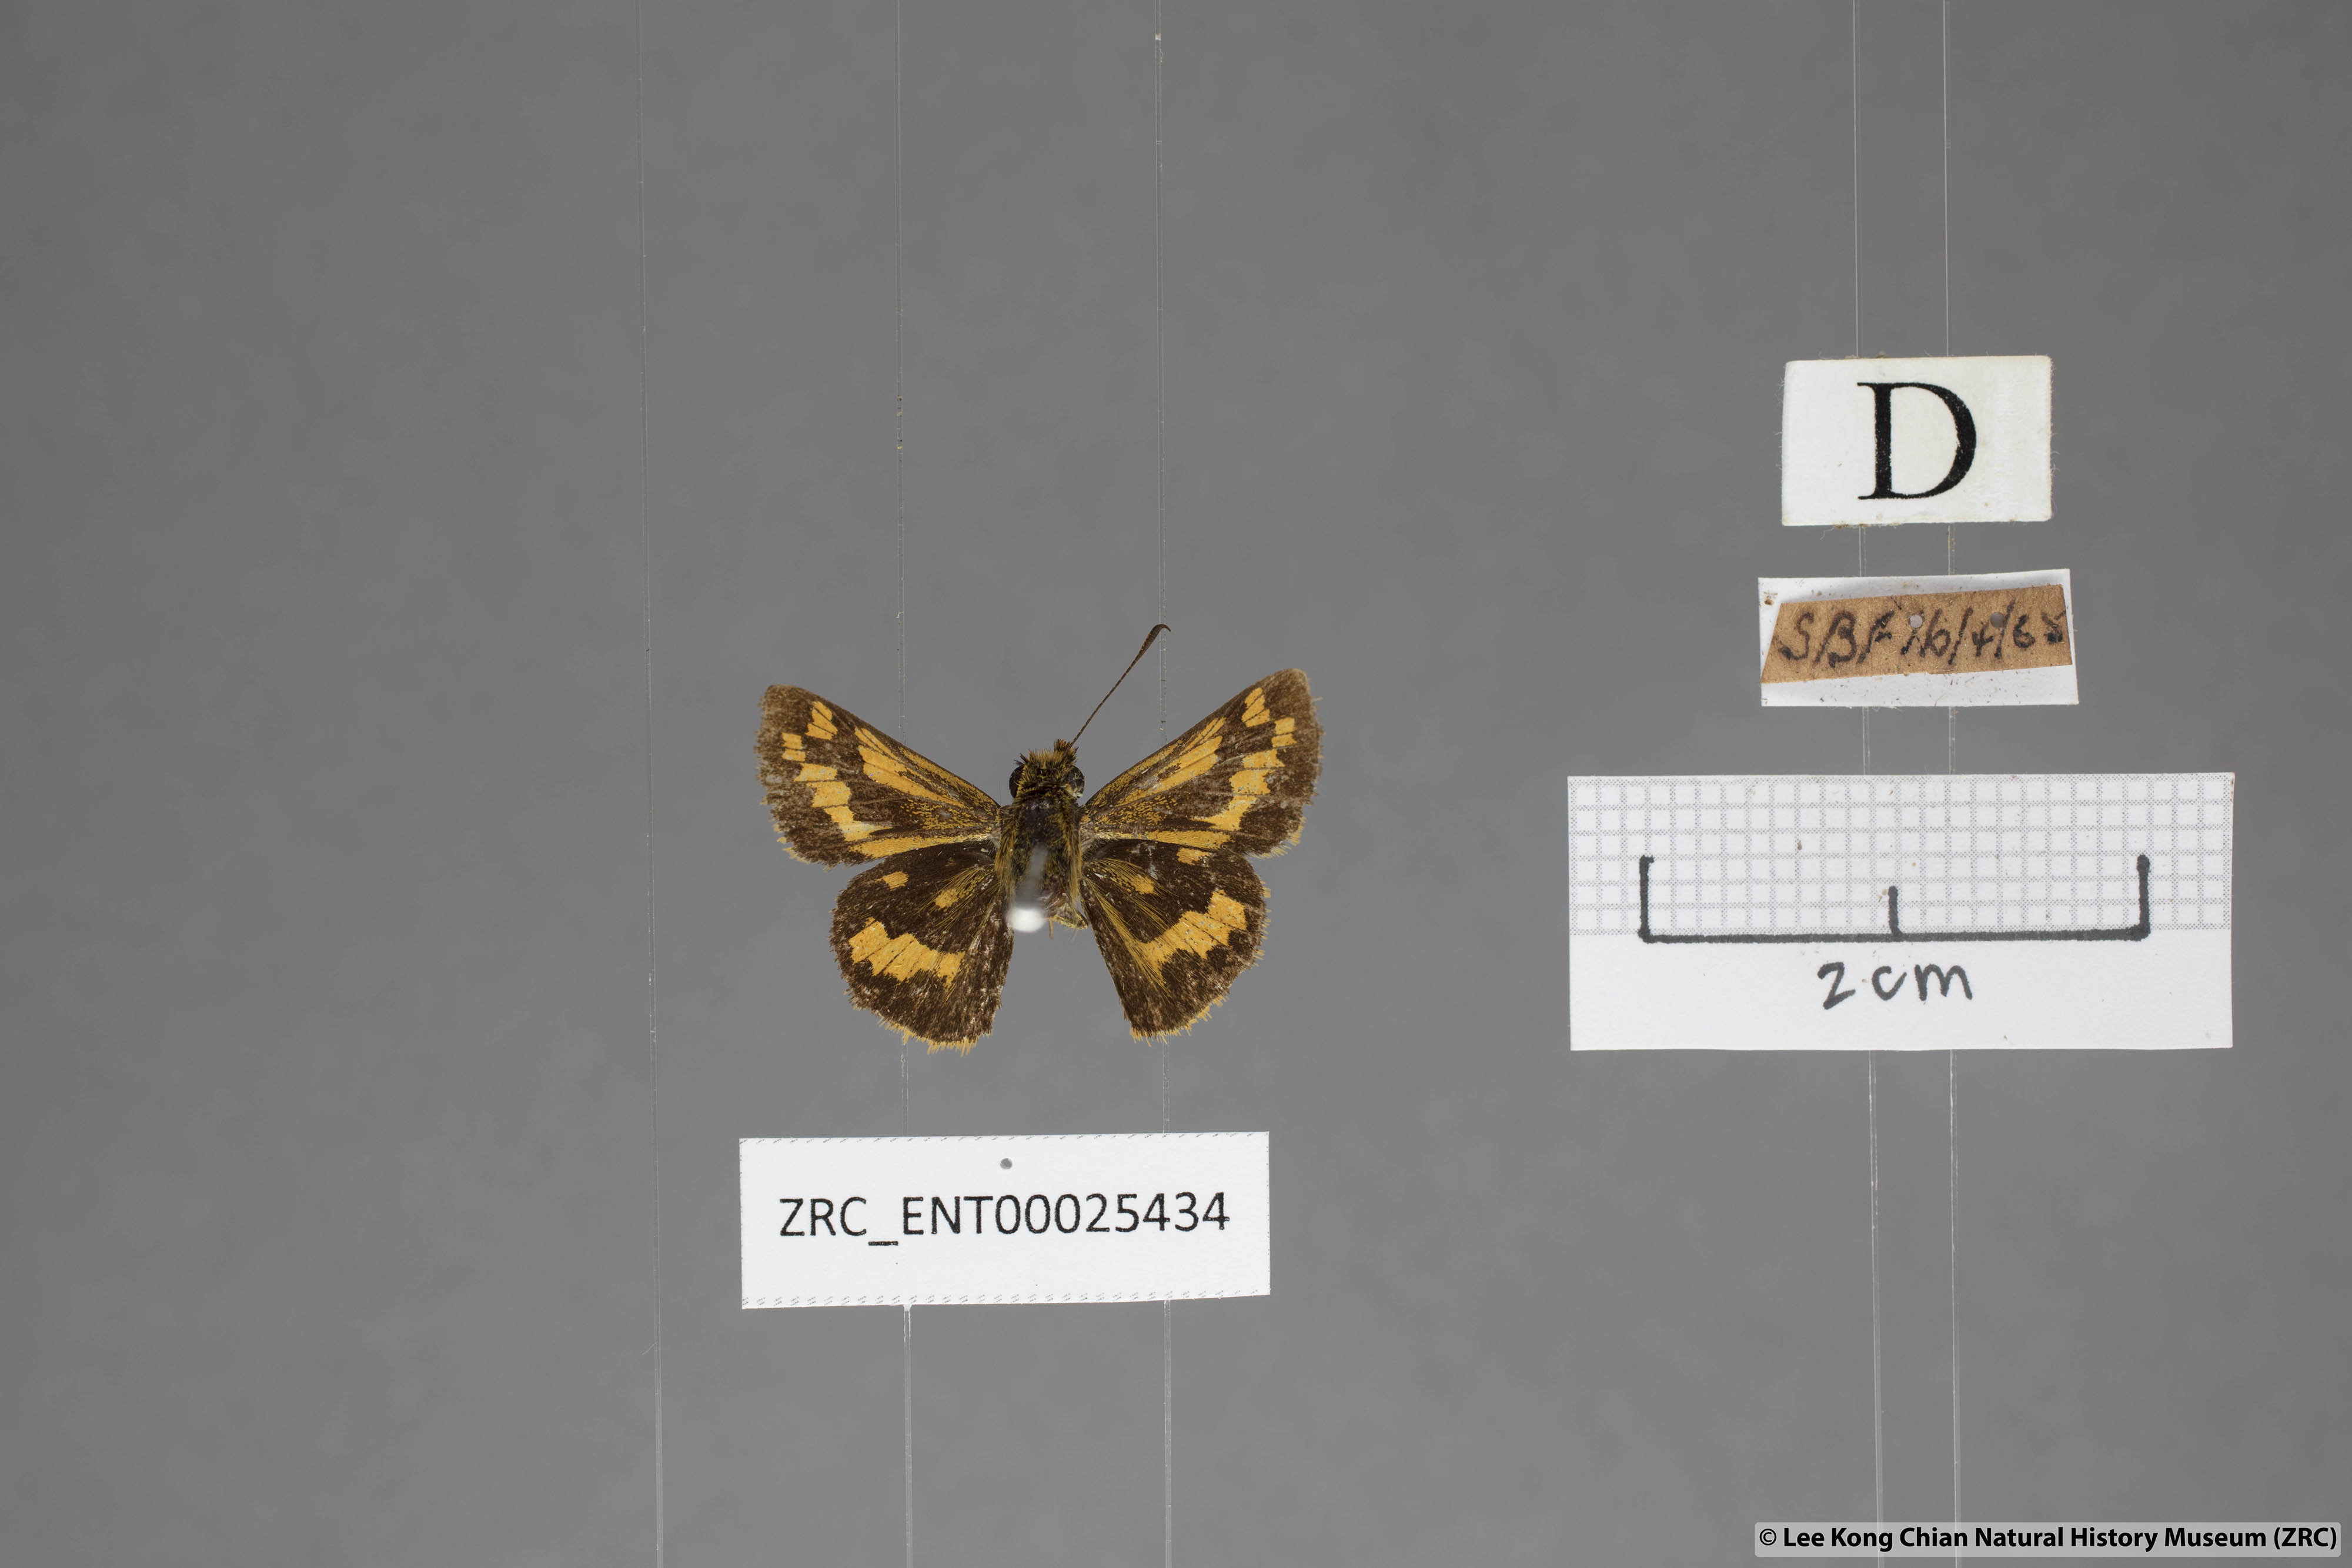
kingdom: Animalia
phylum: Arthropoda
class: Insecta
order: Lepidoptera
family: Hesperiidae
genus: Potanthus
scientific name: Potanthus omaha
